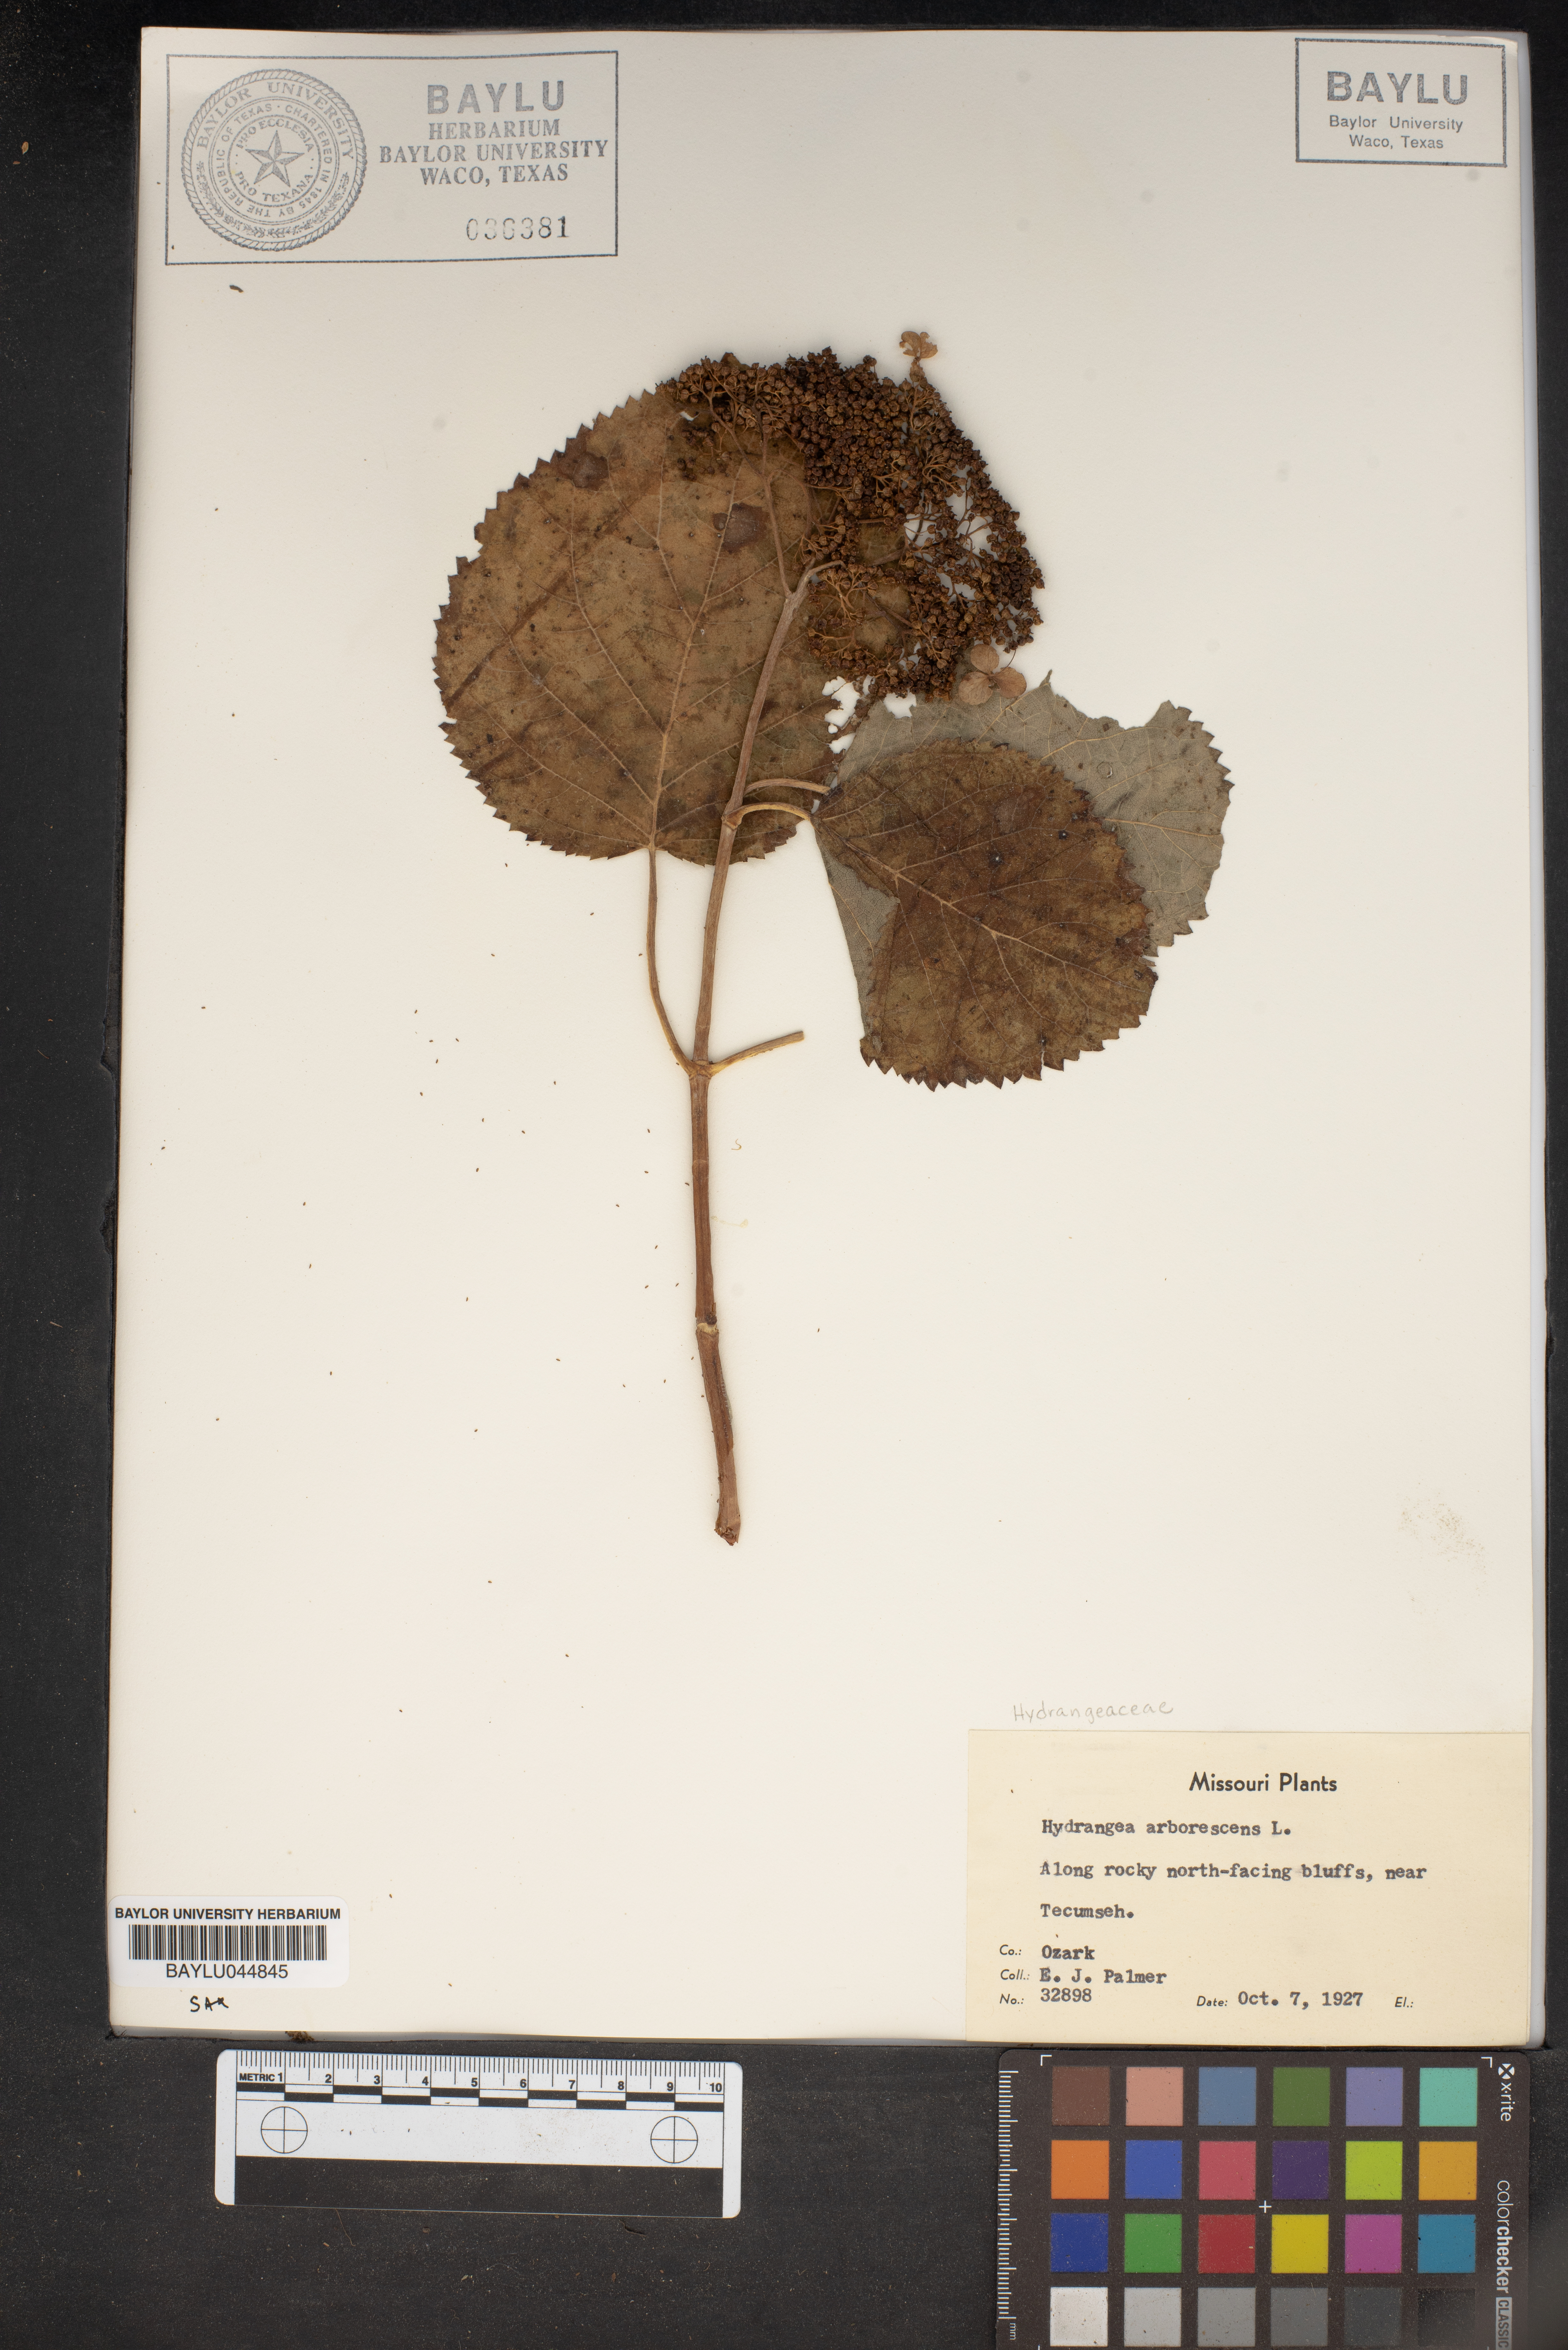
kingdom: Plantae
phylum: Tracheophyta
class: Magnoliopsida
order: Cornales
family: Hydrangeaceae
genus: Hydrangea
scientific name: Hydrangea arborescens
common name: Sevenbark
